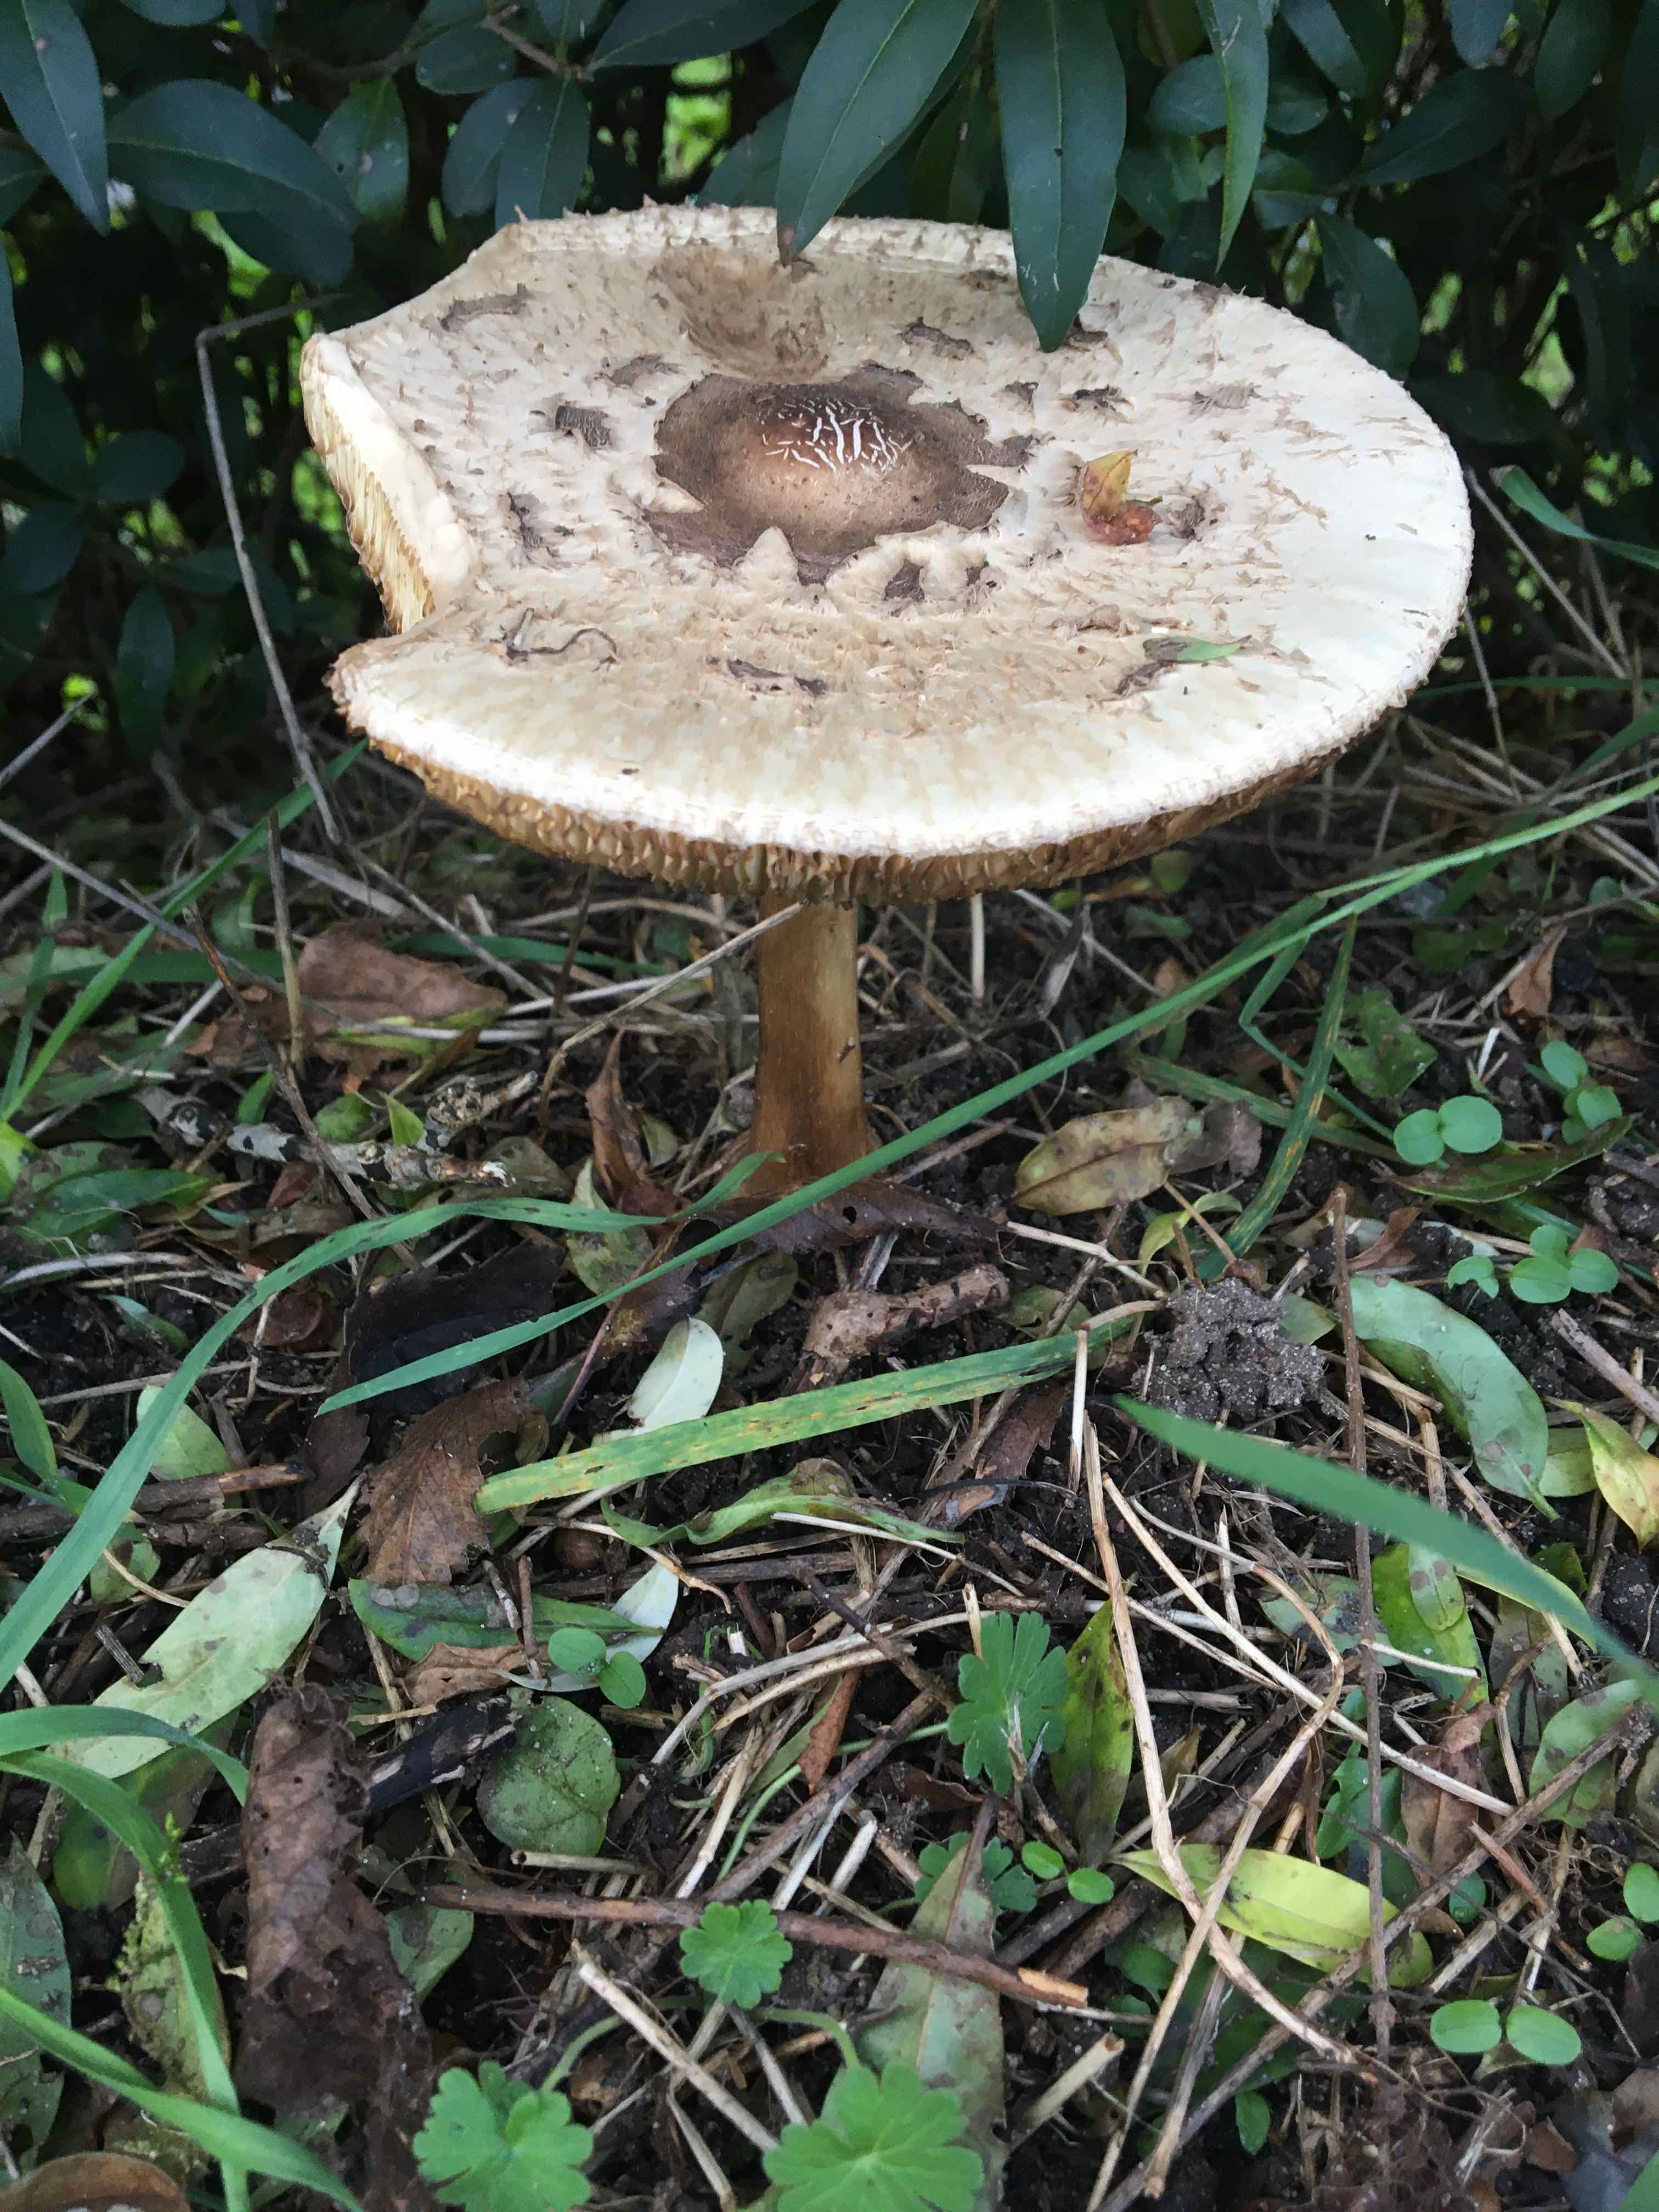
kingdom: Fungi
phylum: Basidiomycota
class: Agaricomycetes
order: Agaricales
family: Agaricaceae
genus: Chlorophyllum
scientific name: Chlorophyllum brunneum
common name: giftig rabarberhat
